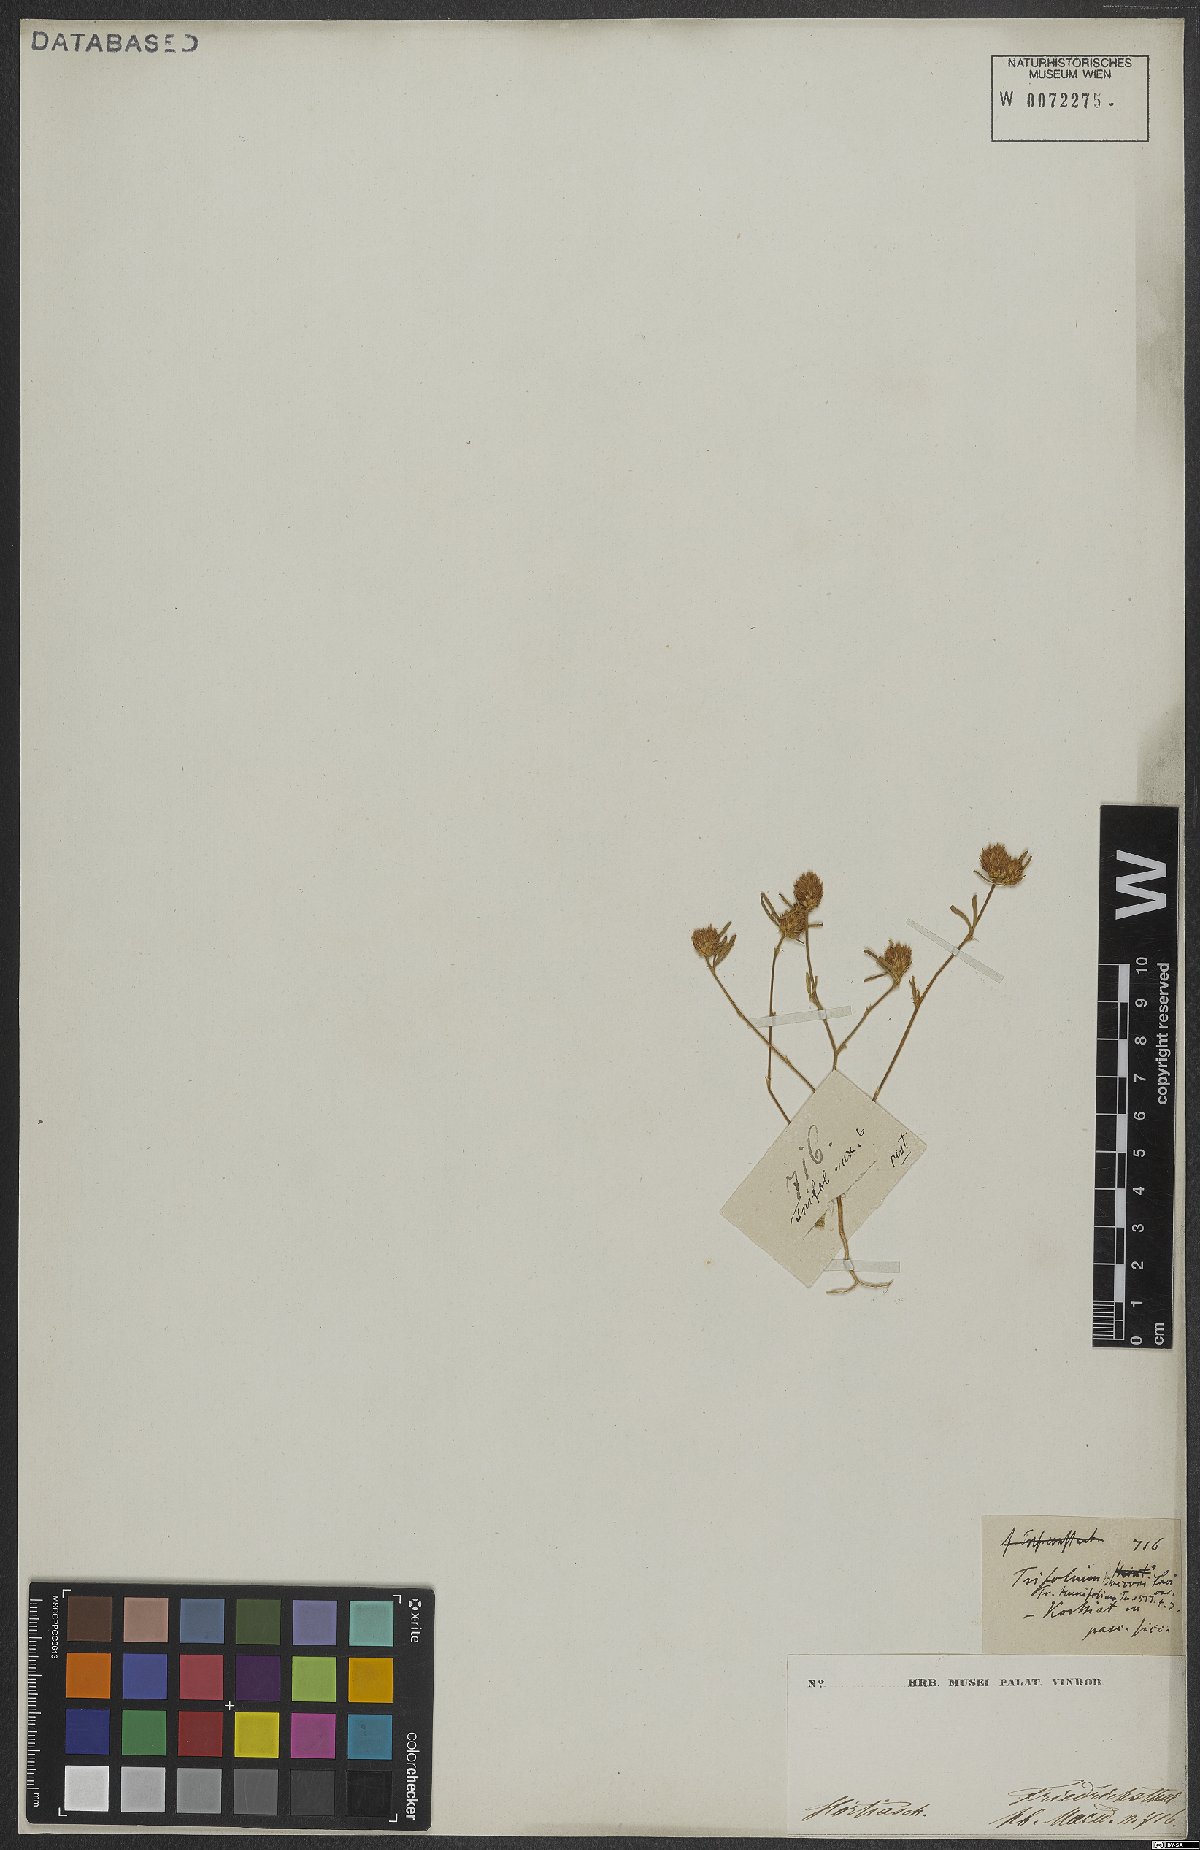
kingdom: Plantae
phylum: Tracheophyta
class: Magnoliopsida
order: Fabales
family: Fabaceae
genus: Trifolium
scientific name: Trifolium saxatile
